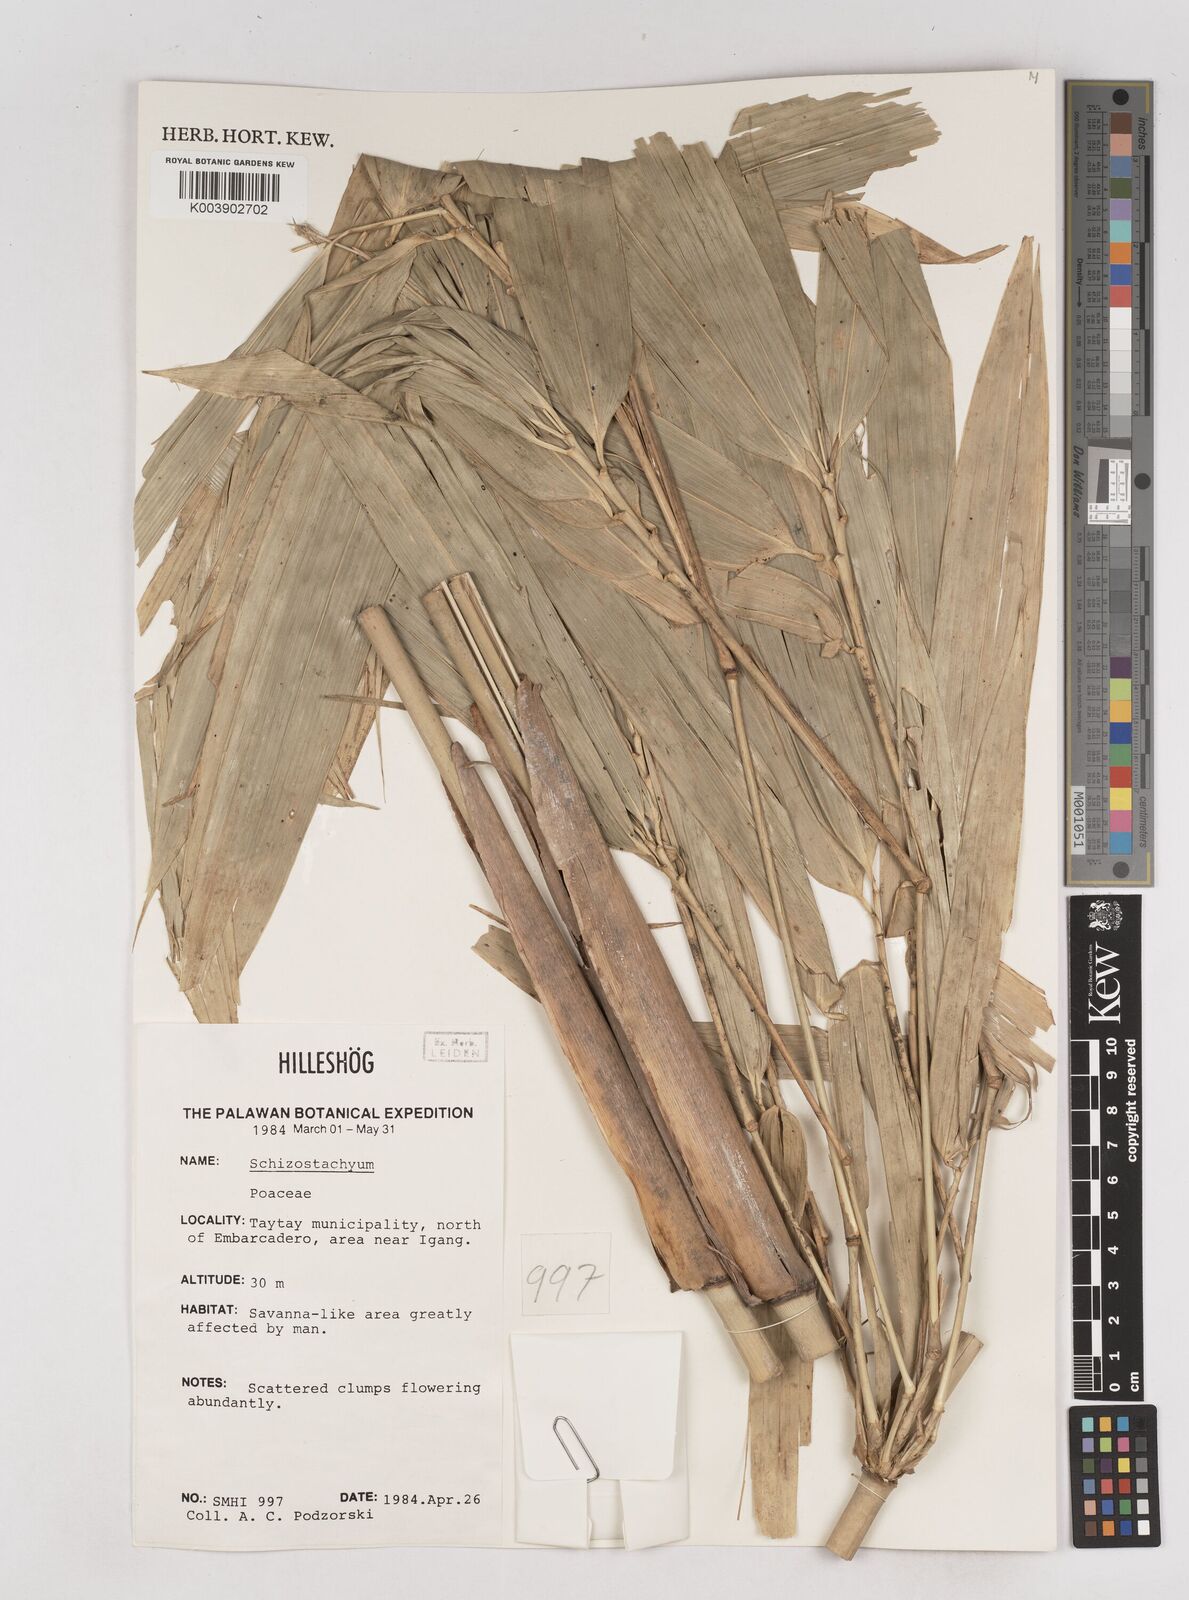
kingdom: Plantae
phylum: Tracheophyta
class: Liliopsida
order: Poales
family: Poaceae
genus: Schizostachyum
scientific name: Schizostachyum
